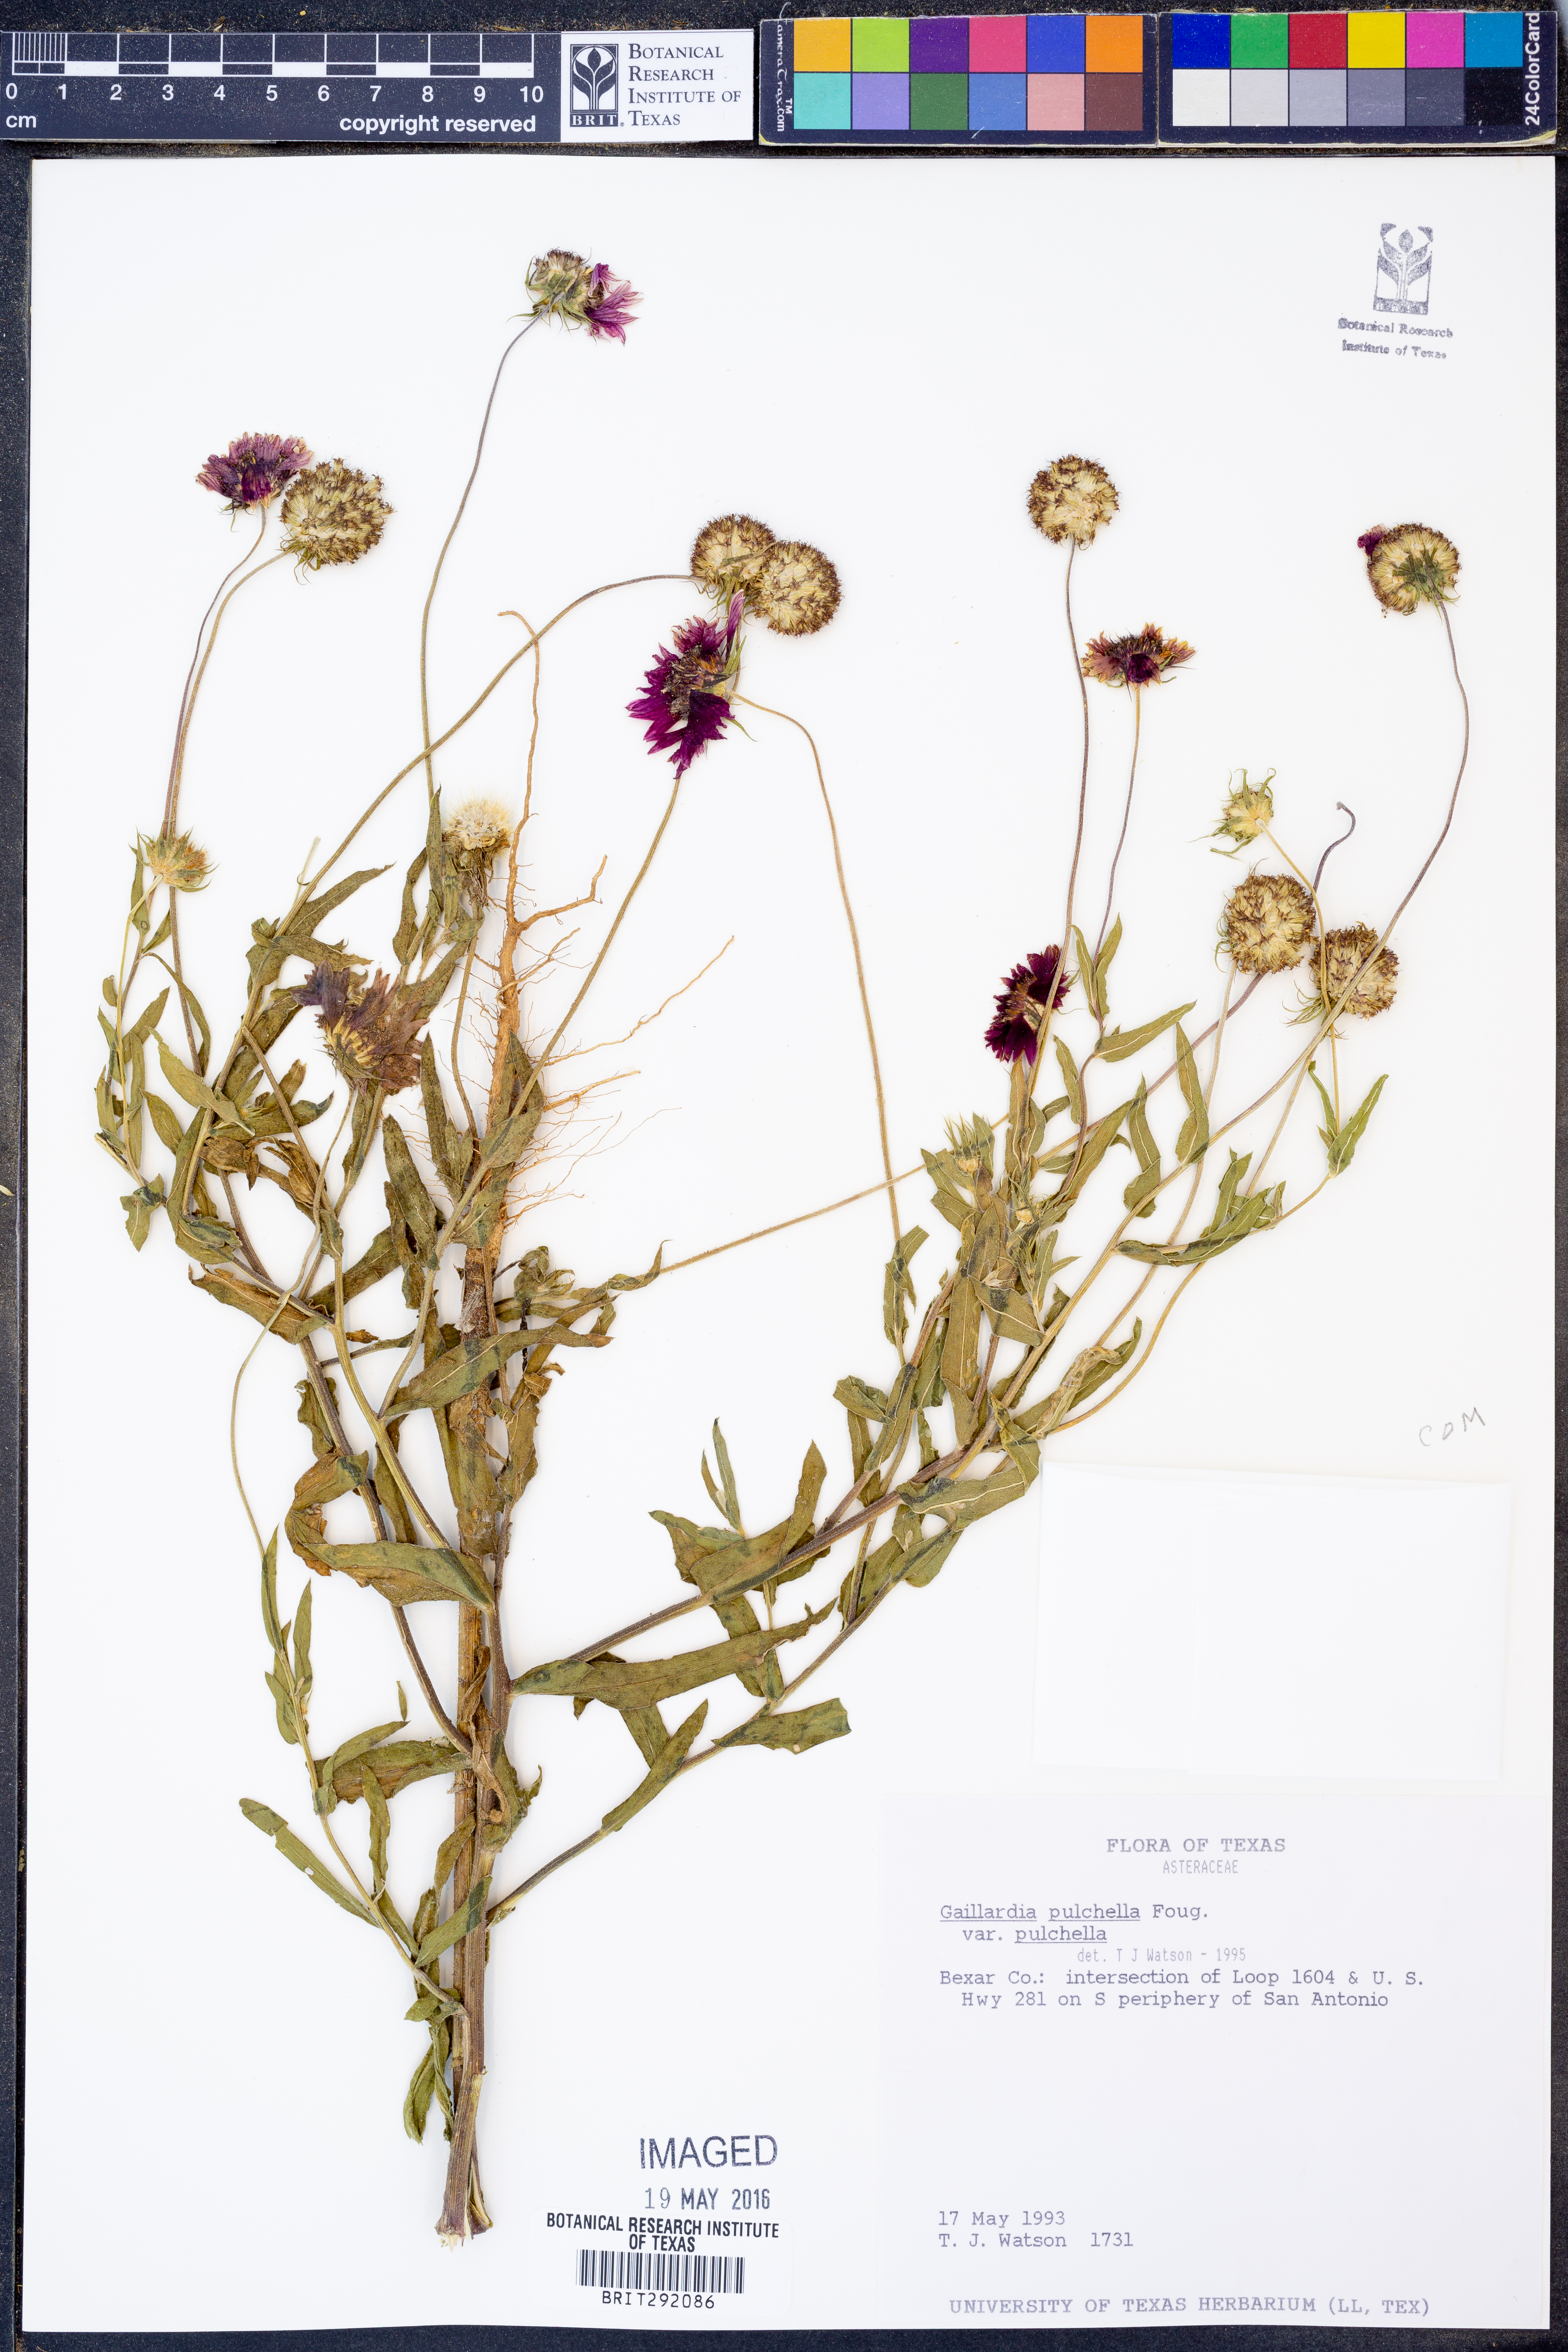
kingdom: Plantae
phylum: Tracheophyta
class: Magnoliopsida
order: Asterales
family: Asteraceae
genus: Gaillardia
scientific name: Gaillardia pulchella
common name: Firewheel
